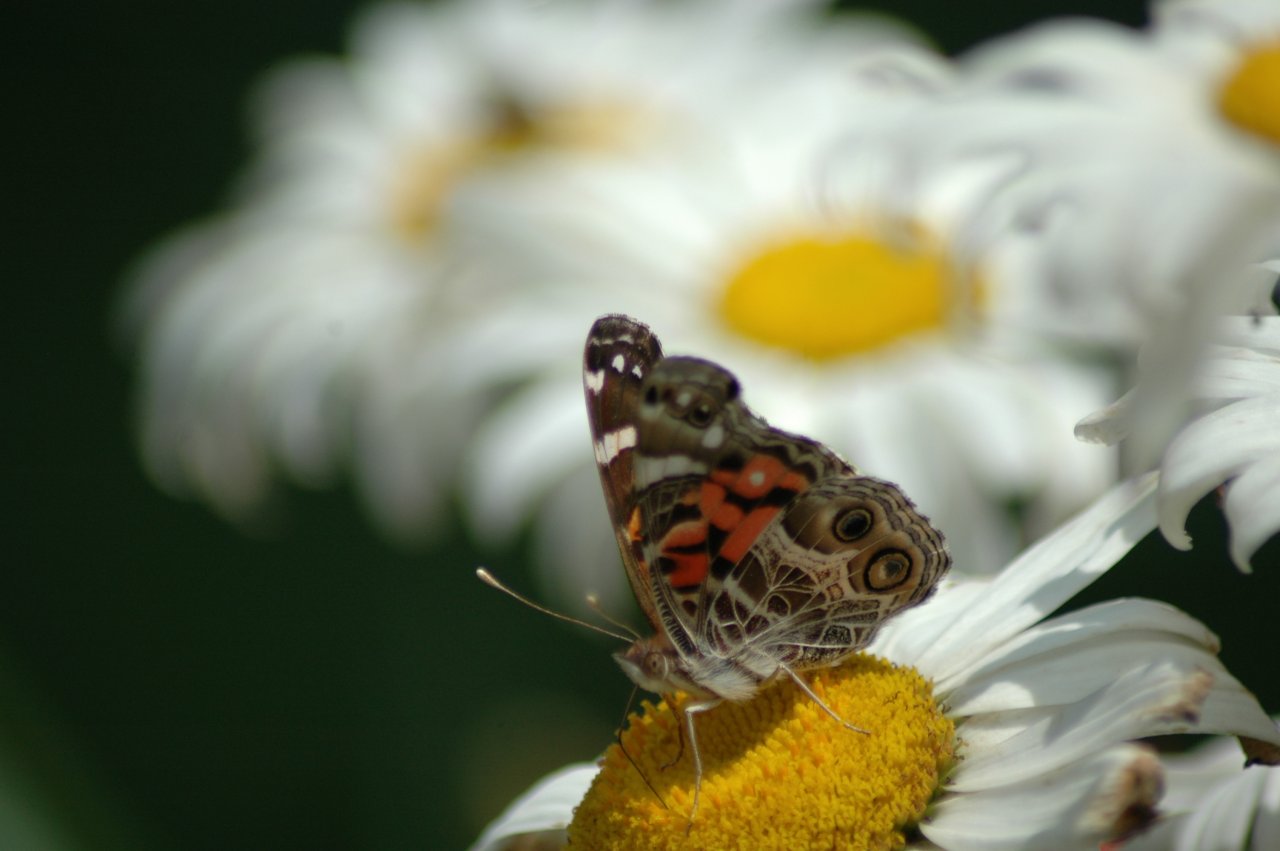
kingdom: Animalia
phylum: Arthropoda
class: Insecta
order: Lepidoptera
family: Nymphalidae
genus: Vanessa
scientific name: Vanessa virginiensis
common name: American Lady
